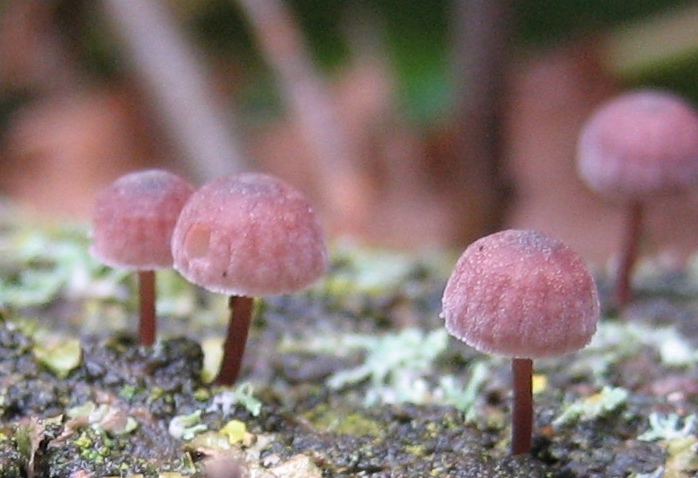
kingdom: Fungi
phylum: Basidiomycota
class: Agaricomycetes
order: Agaricales
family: Mycenaceae
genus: Mycena
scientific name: Mycena meliigena
